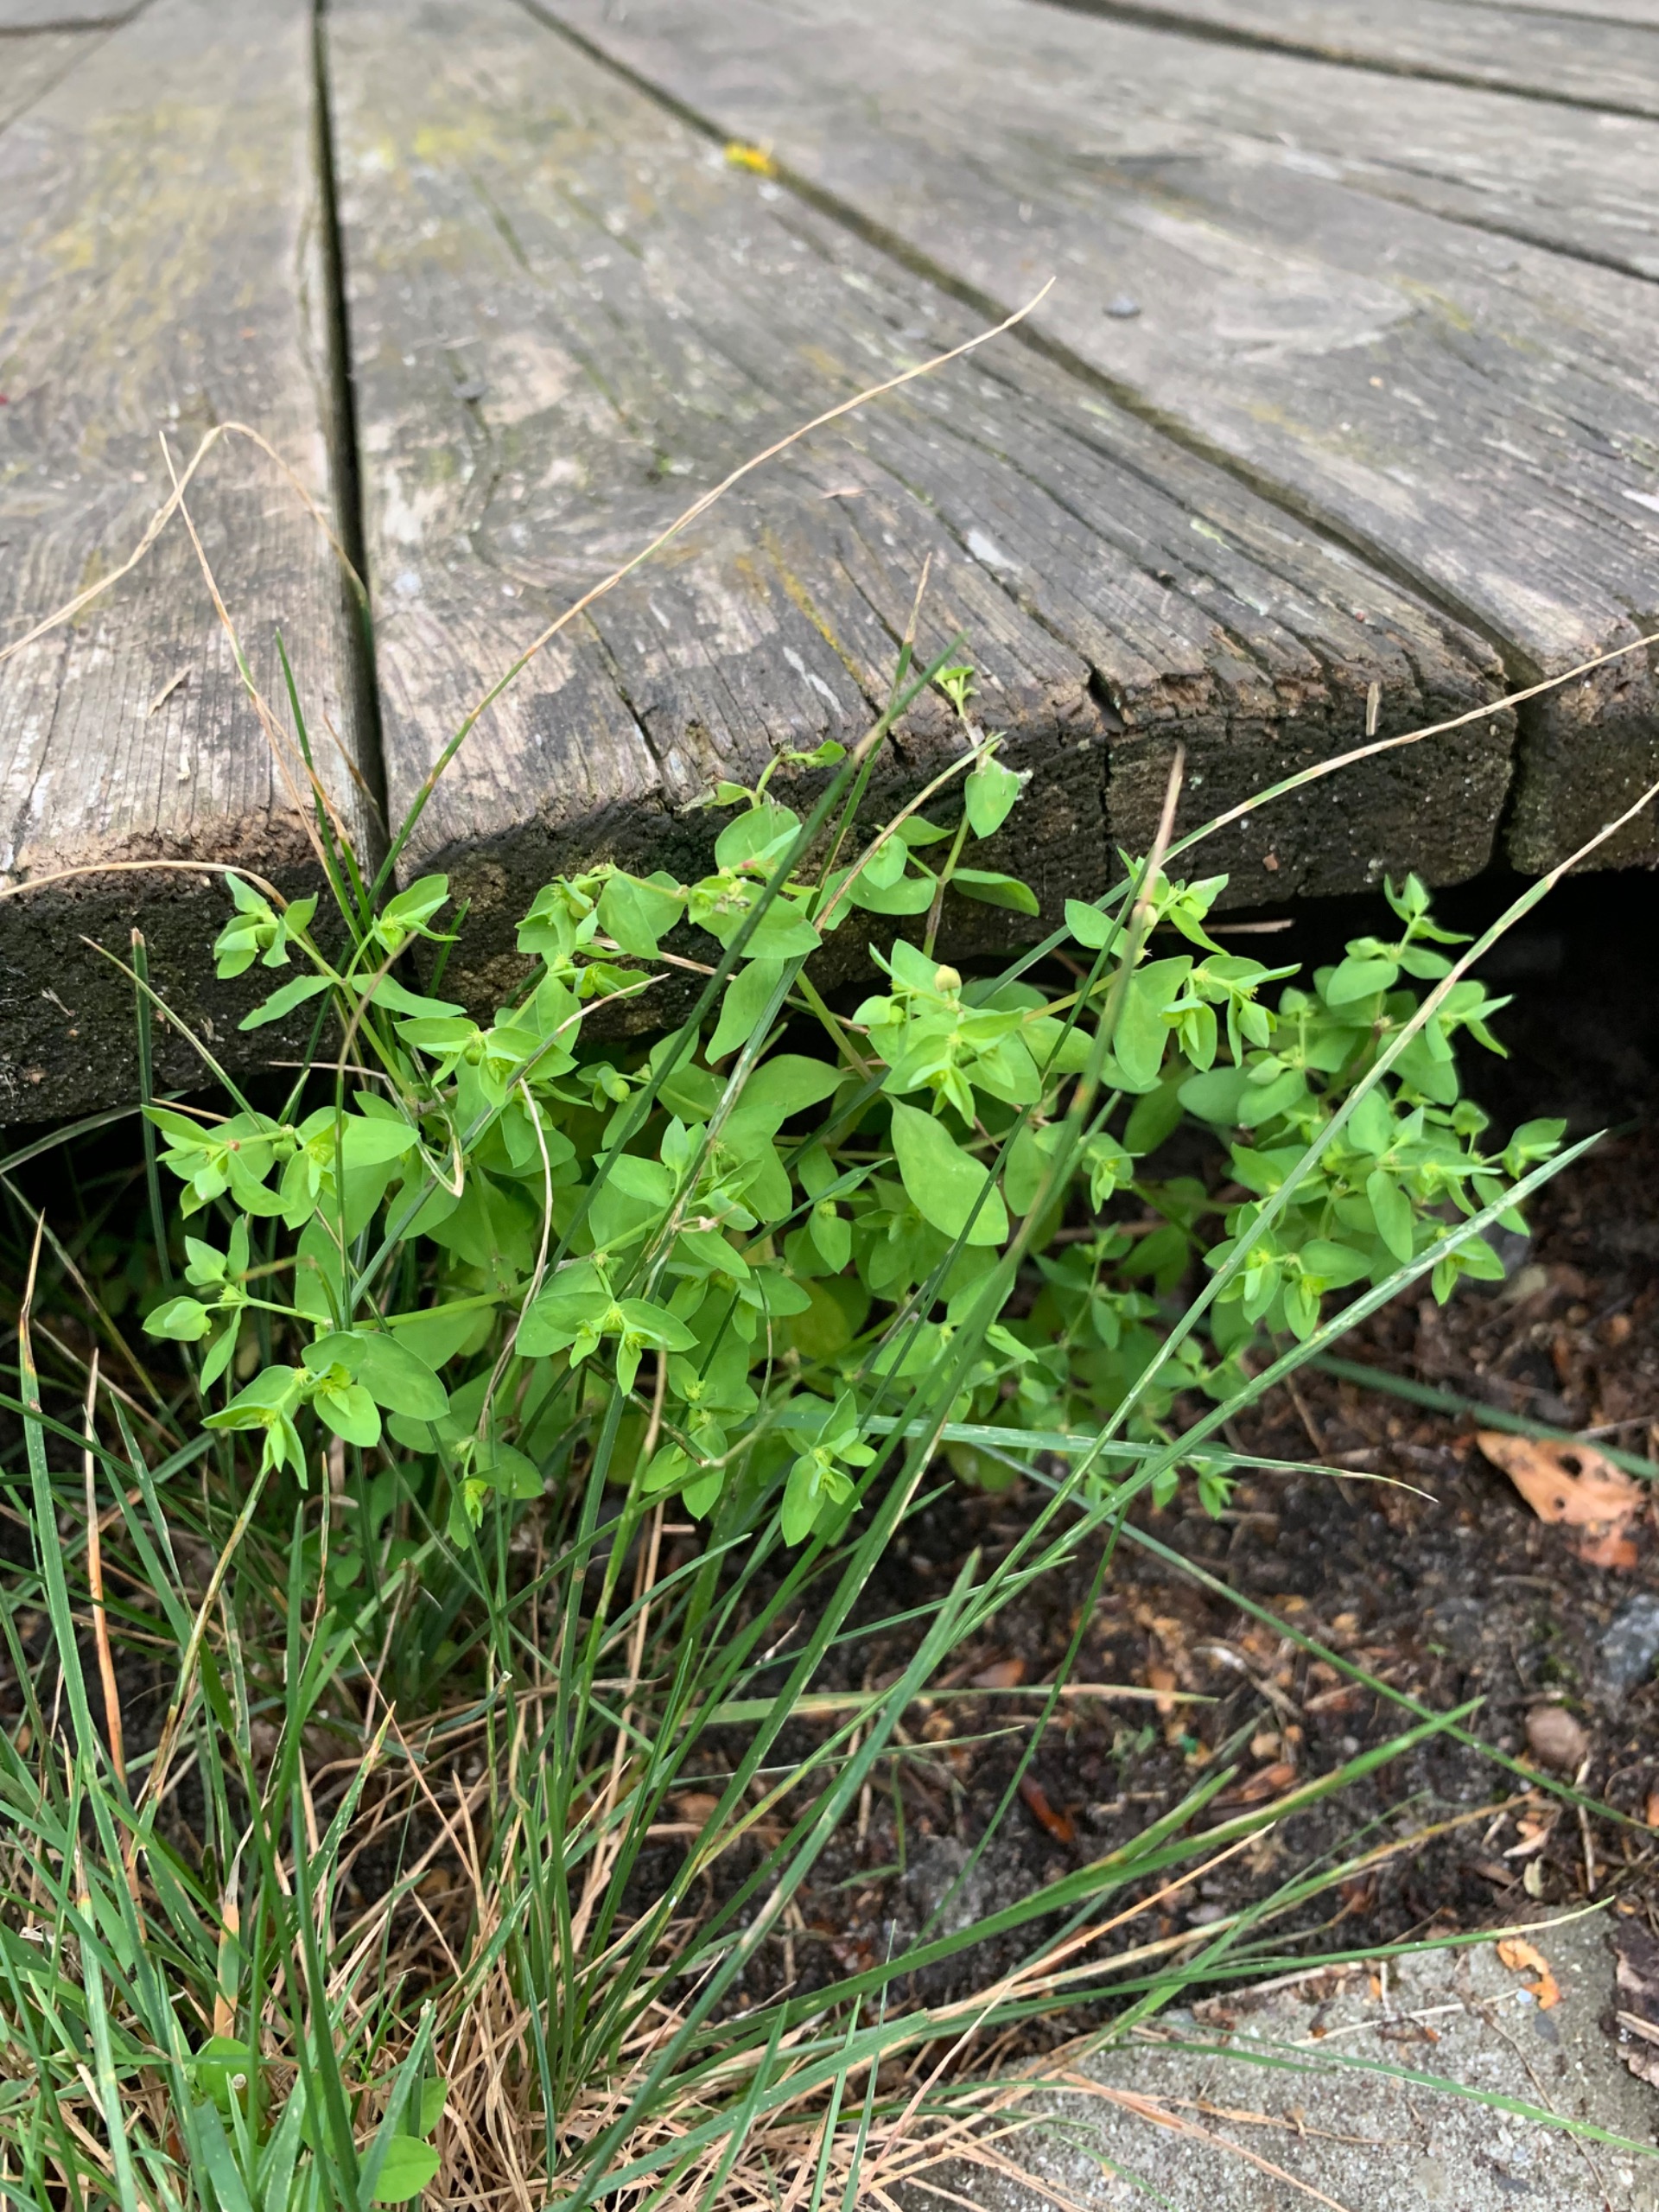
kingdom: Plantae
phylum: Tracheophyta
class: Magnoliopsida
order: Malpighiales
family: Euphorbiaceae
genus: Euphorbia
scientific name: Euphorbia peplus
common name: Gaffel-vortemælk
